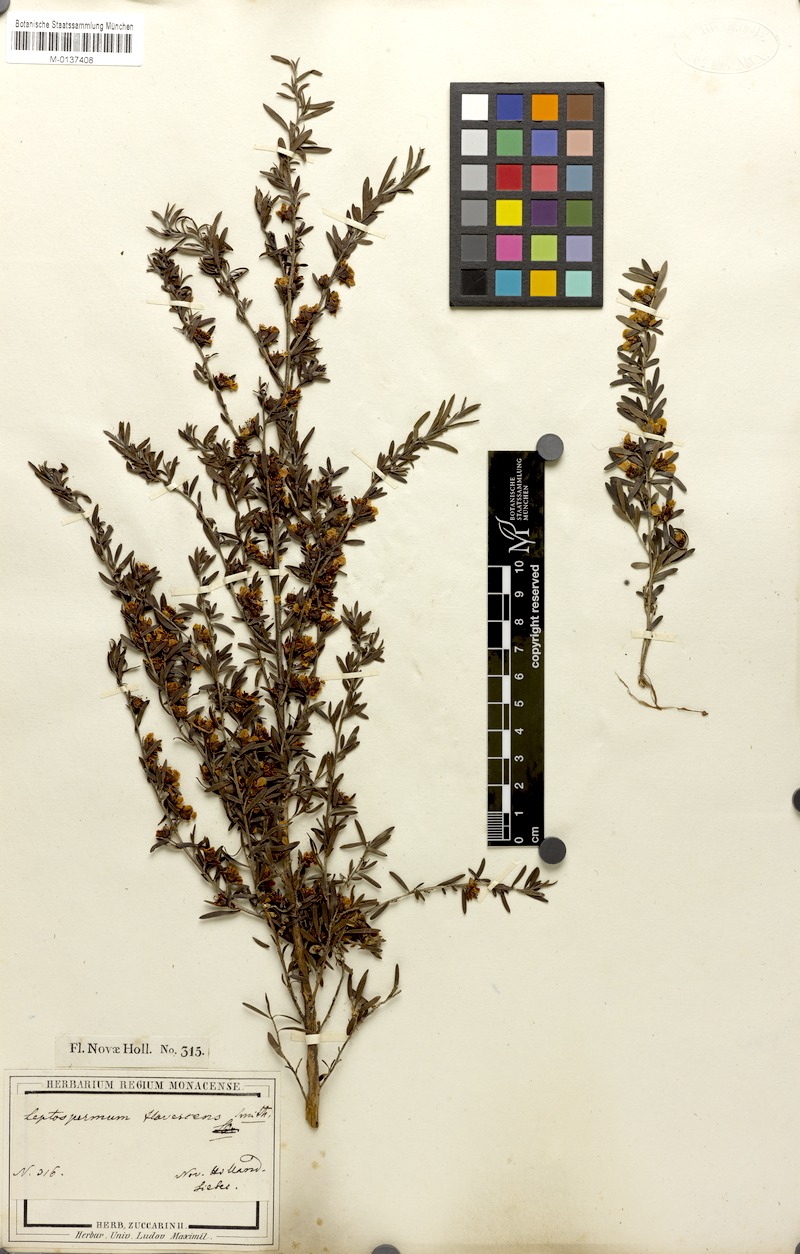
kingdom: Plantae
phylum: Tracheophyta
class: Magnoliopsida
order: Myrtales
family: Myrtaceae
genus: Leptospermum
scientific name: Leptospermum polygalifolium
